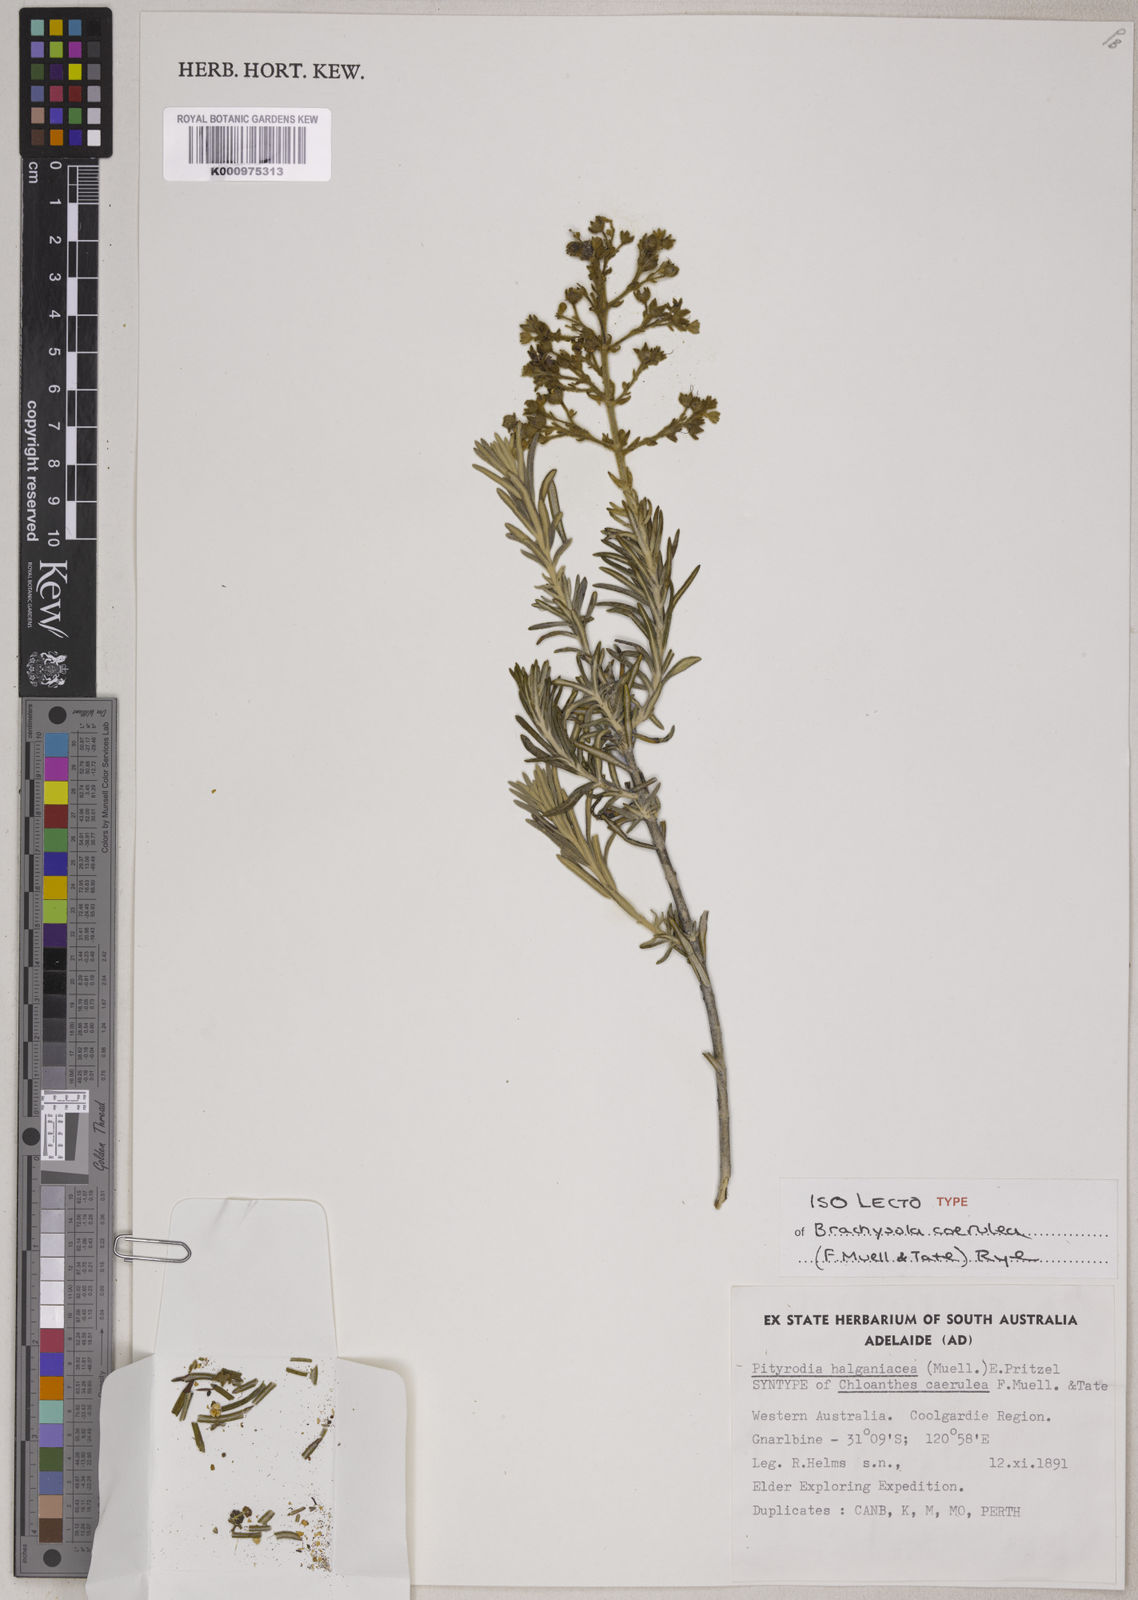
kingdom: Plantae
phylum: Tracheophyta
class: Magnoliopsida
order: Lamiales
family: Lamiaceae
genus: Brachysola
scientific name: Brachysola coerulea
